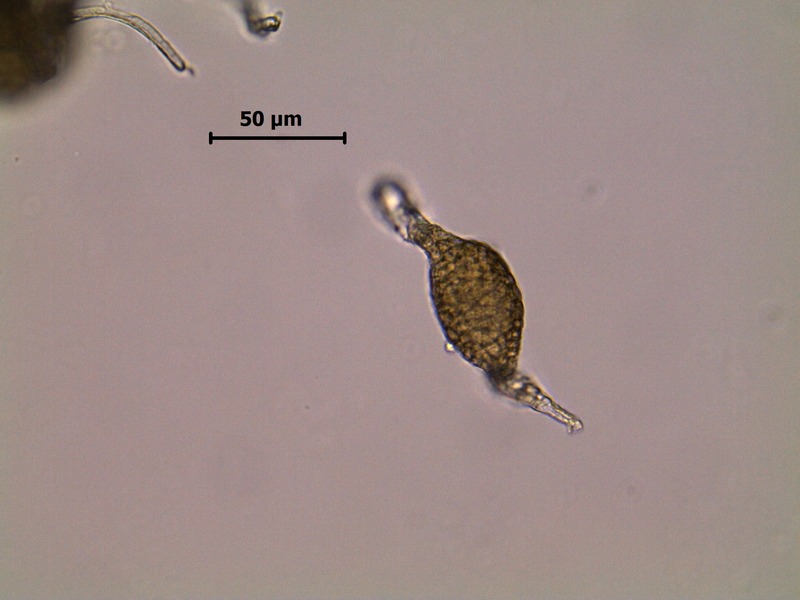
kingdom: Fungi
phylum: Ascomycota
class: Dothideomycetes
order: Pleosporales
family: Phaeosphaeriaceae
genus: Ampelomyces
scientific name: Ampelomyces quisqualis
